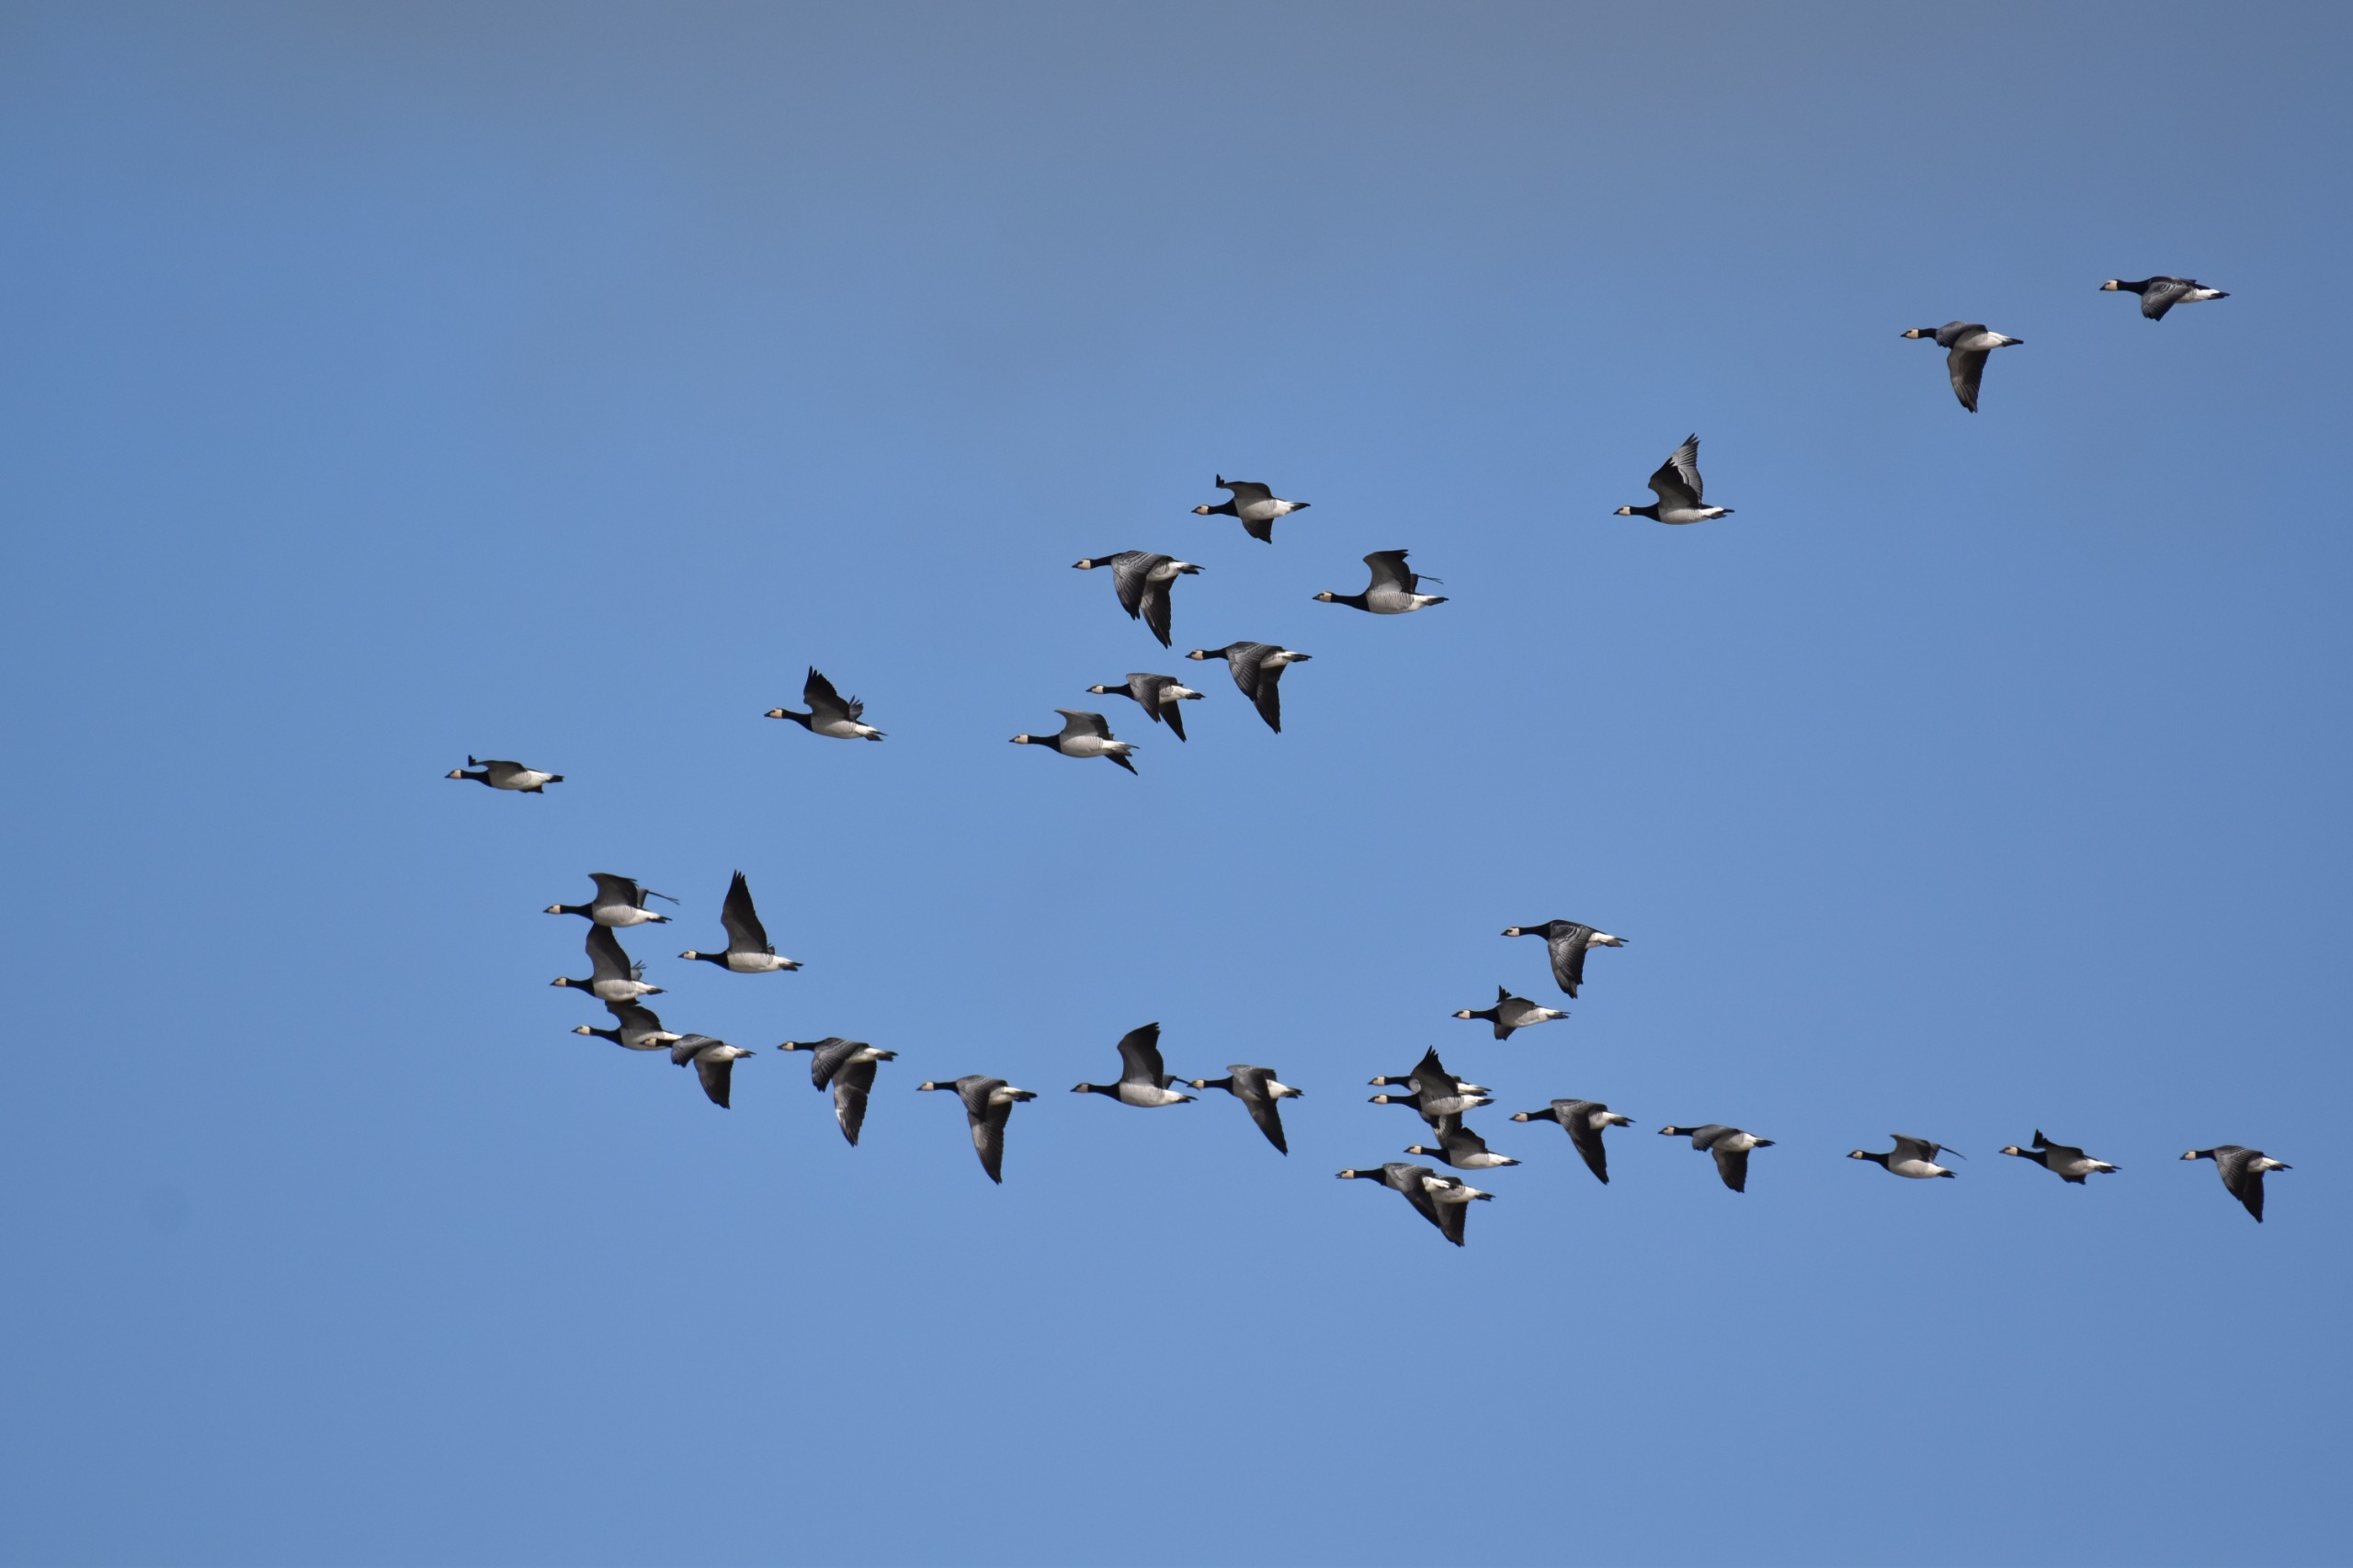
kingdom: Animalia
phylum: Chordata
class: Aves
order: Anseriformes
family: Anatidae
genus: Branta
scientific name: Branta leucopsis
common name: Bramgås
